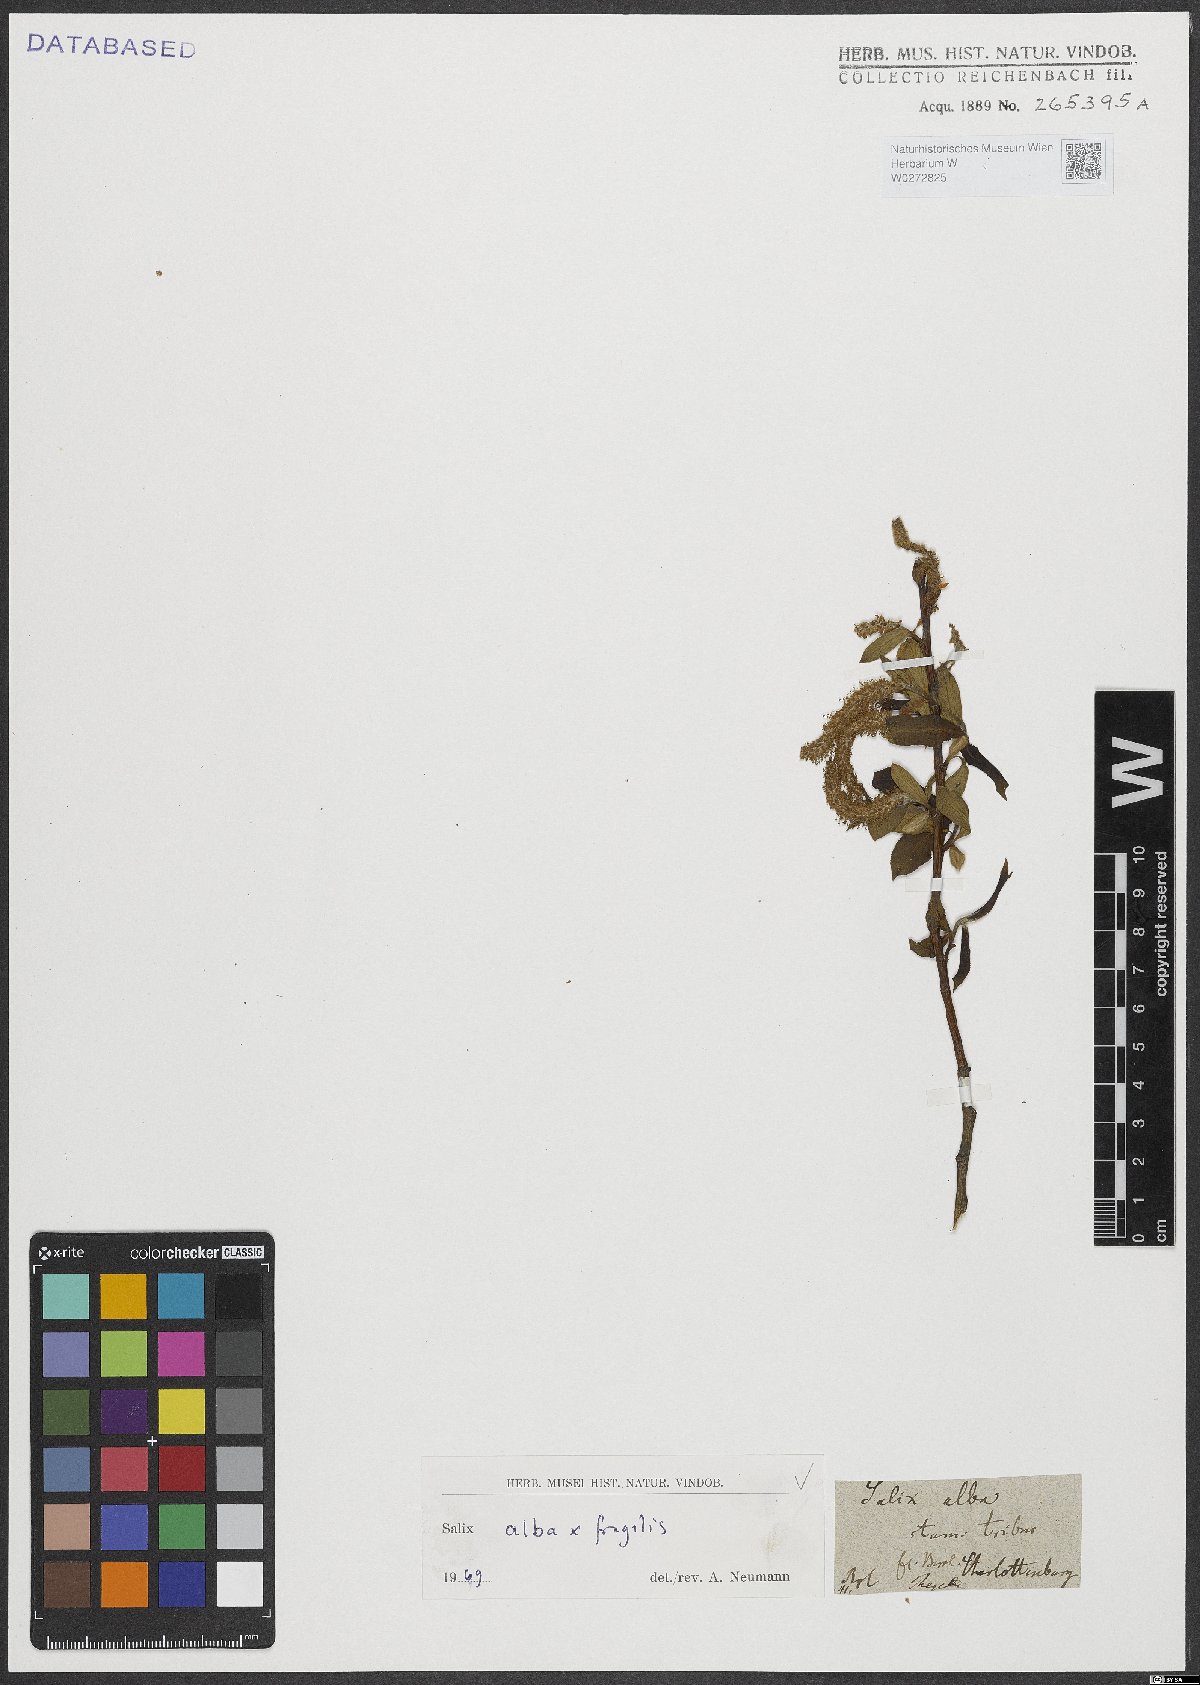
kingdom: Plantae
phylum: Tracheophyta
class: Magnoliopsida
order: Malpighiales
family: Salicaceae
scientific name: Salicaceae
